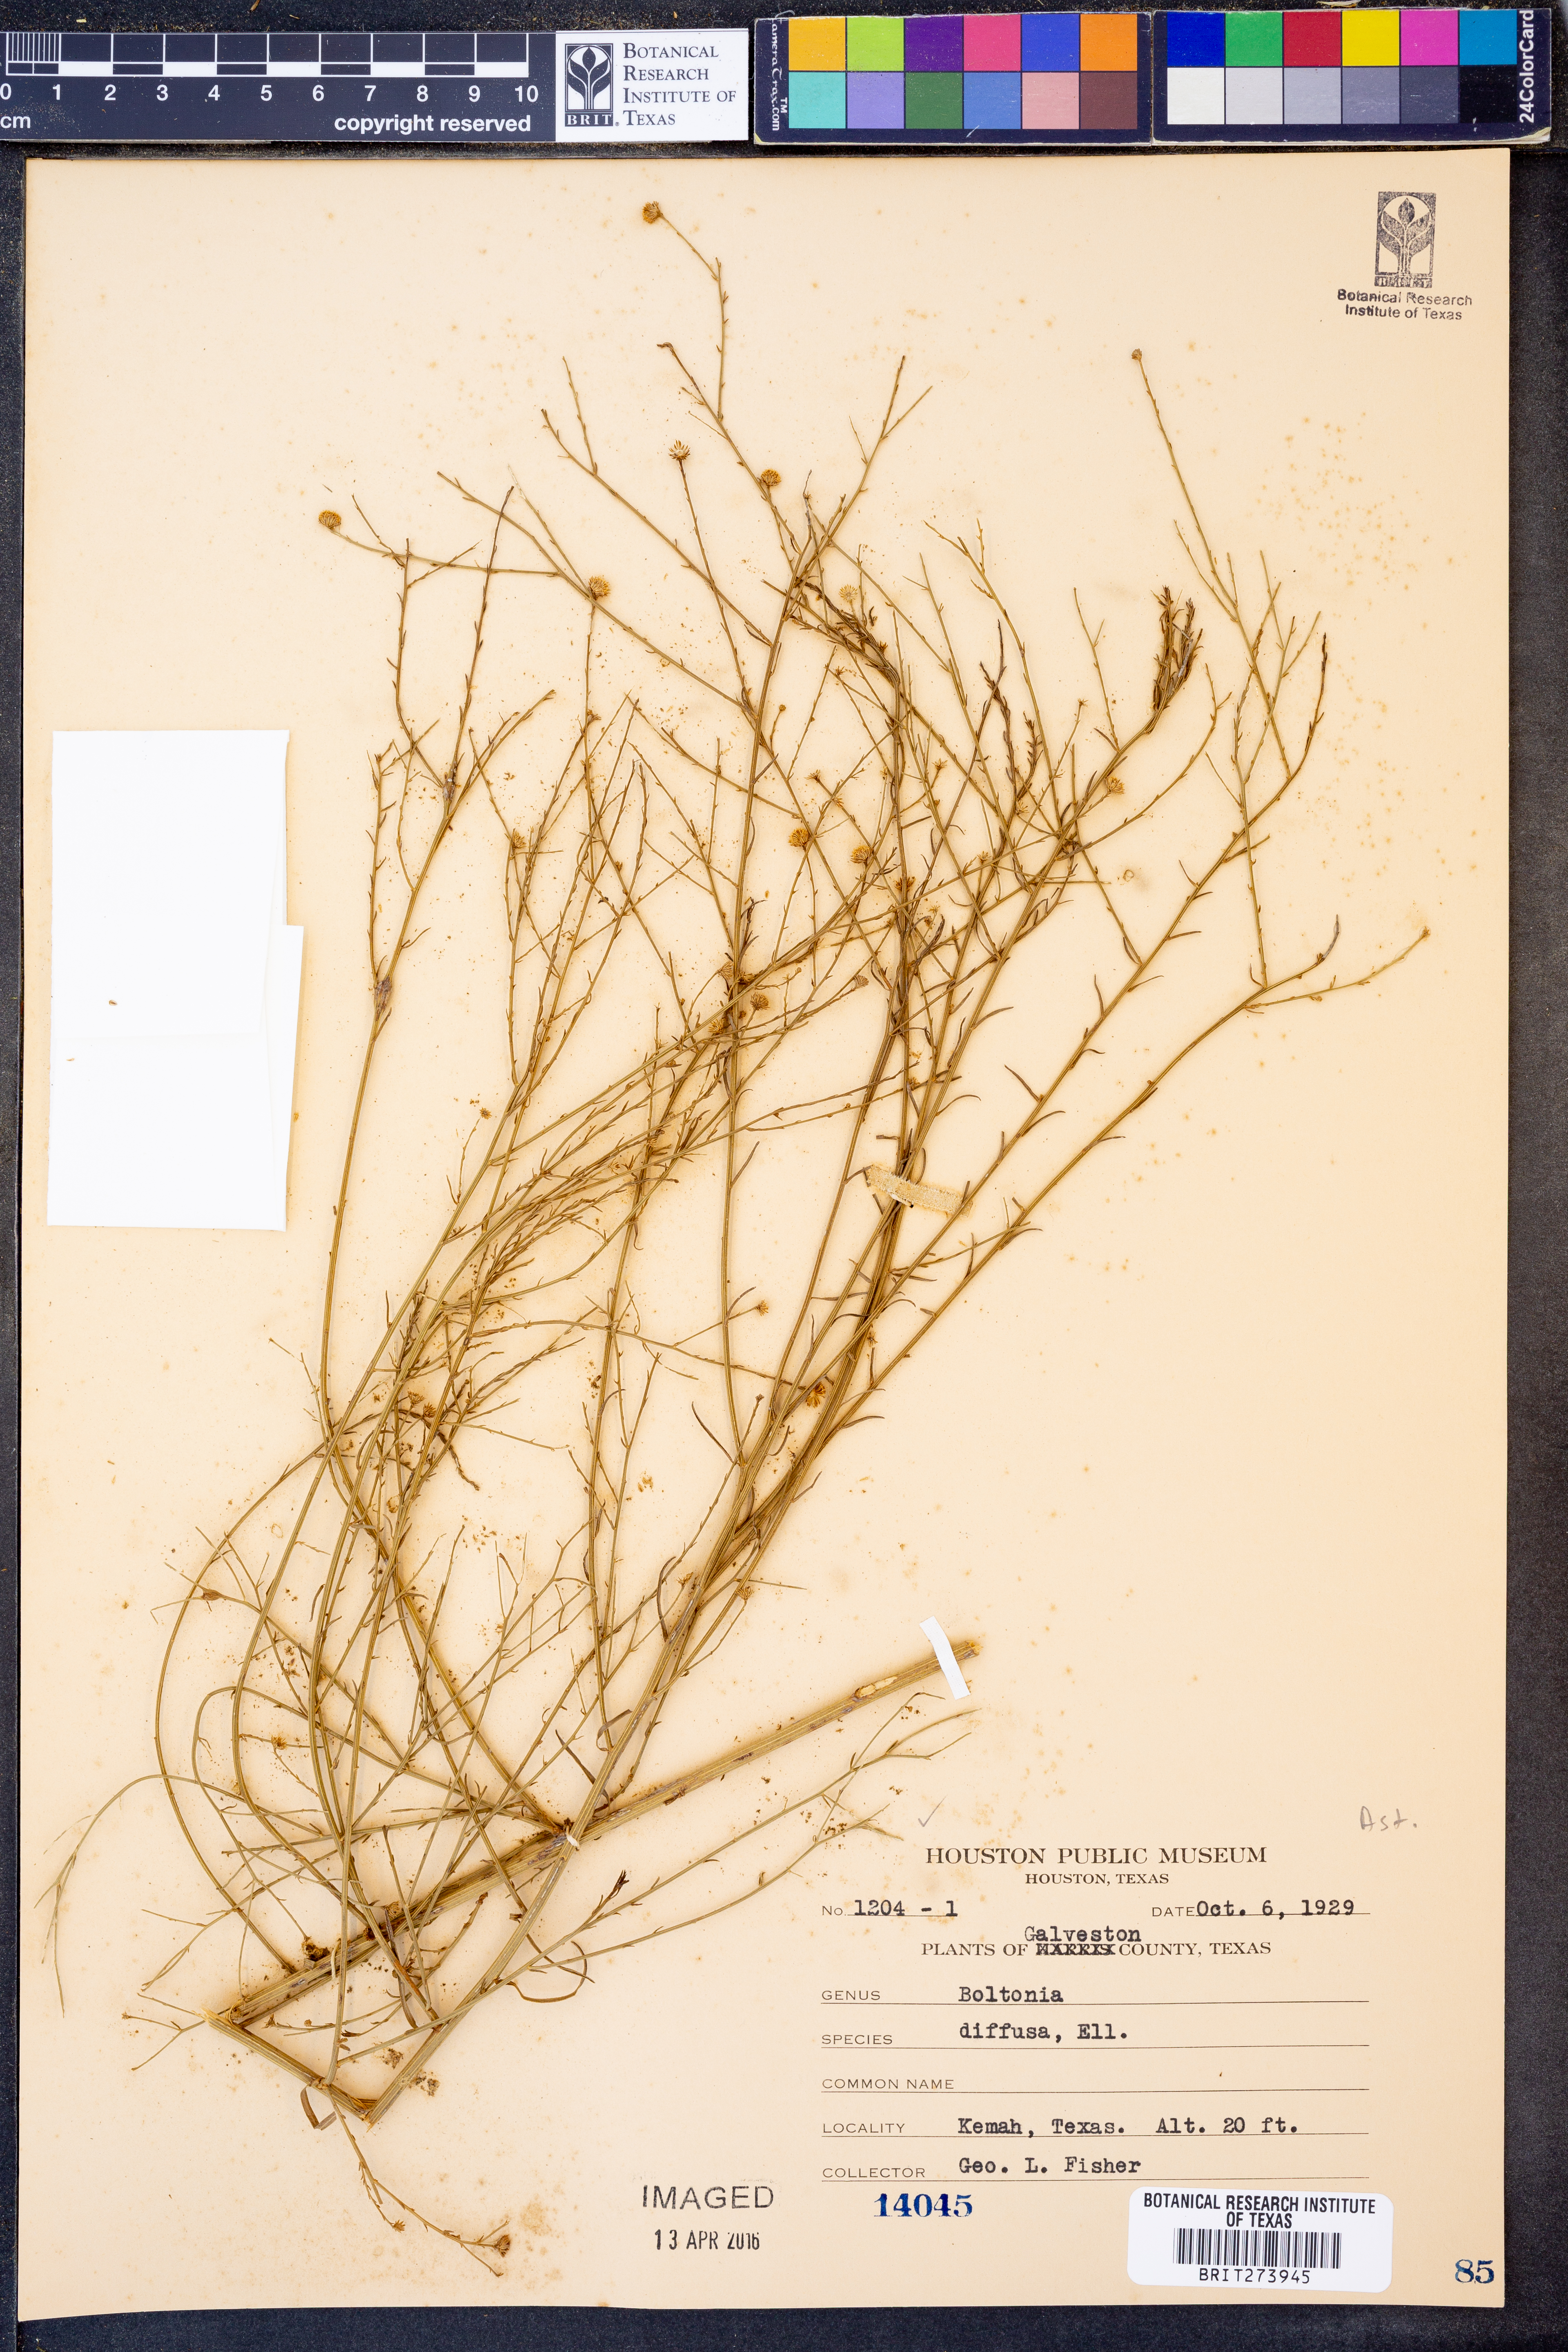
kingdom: Plantae
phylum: Tracheophyta
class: Magnoliopsida
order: Asterales
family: Asteraceae
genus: Boltonia
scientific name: Boltonia diffusa
